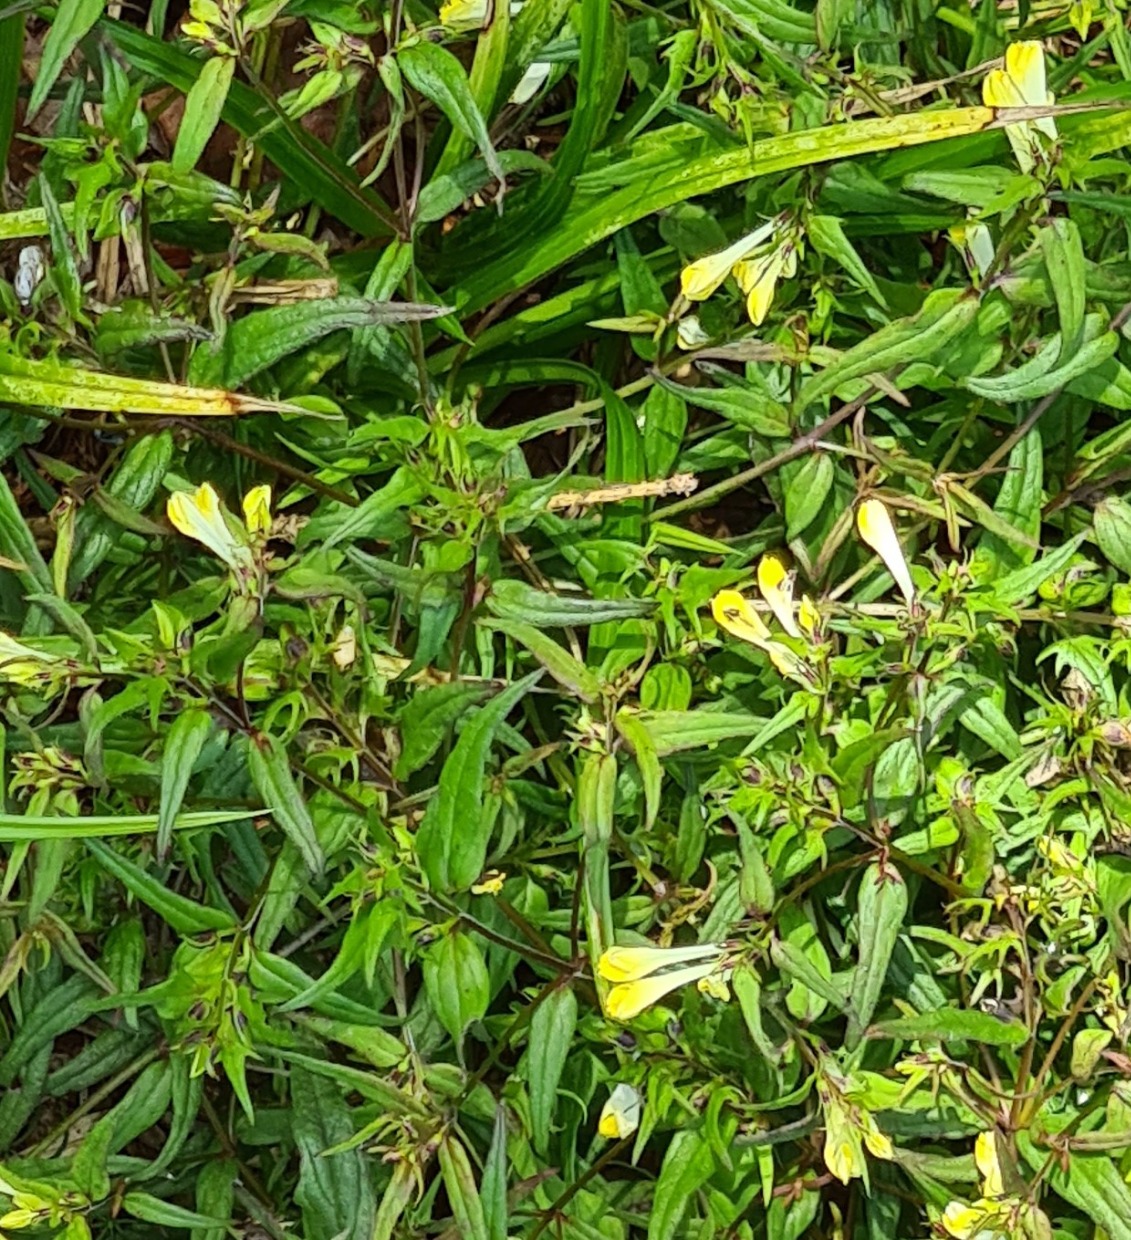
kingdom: Plantae
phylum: Tracheophyta
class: Magnoliopsida
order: Lamiales
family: Orobanchaceae
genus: Melampyrum
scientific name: Melampyrum pratense
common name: Almindelig kohvede
